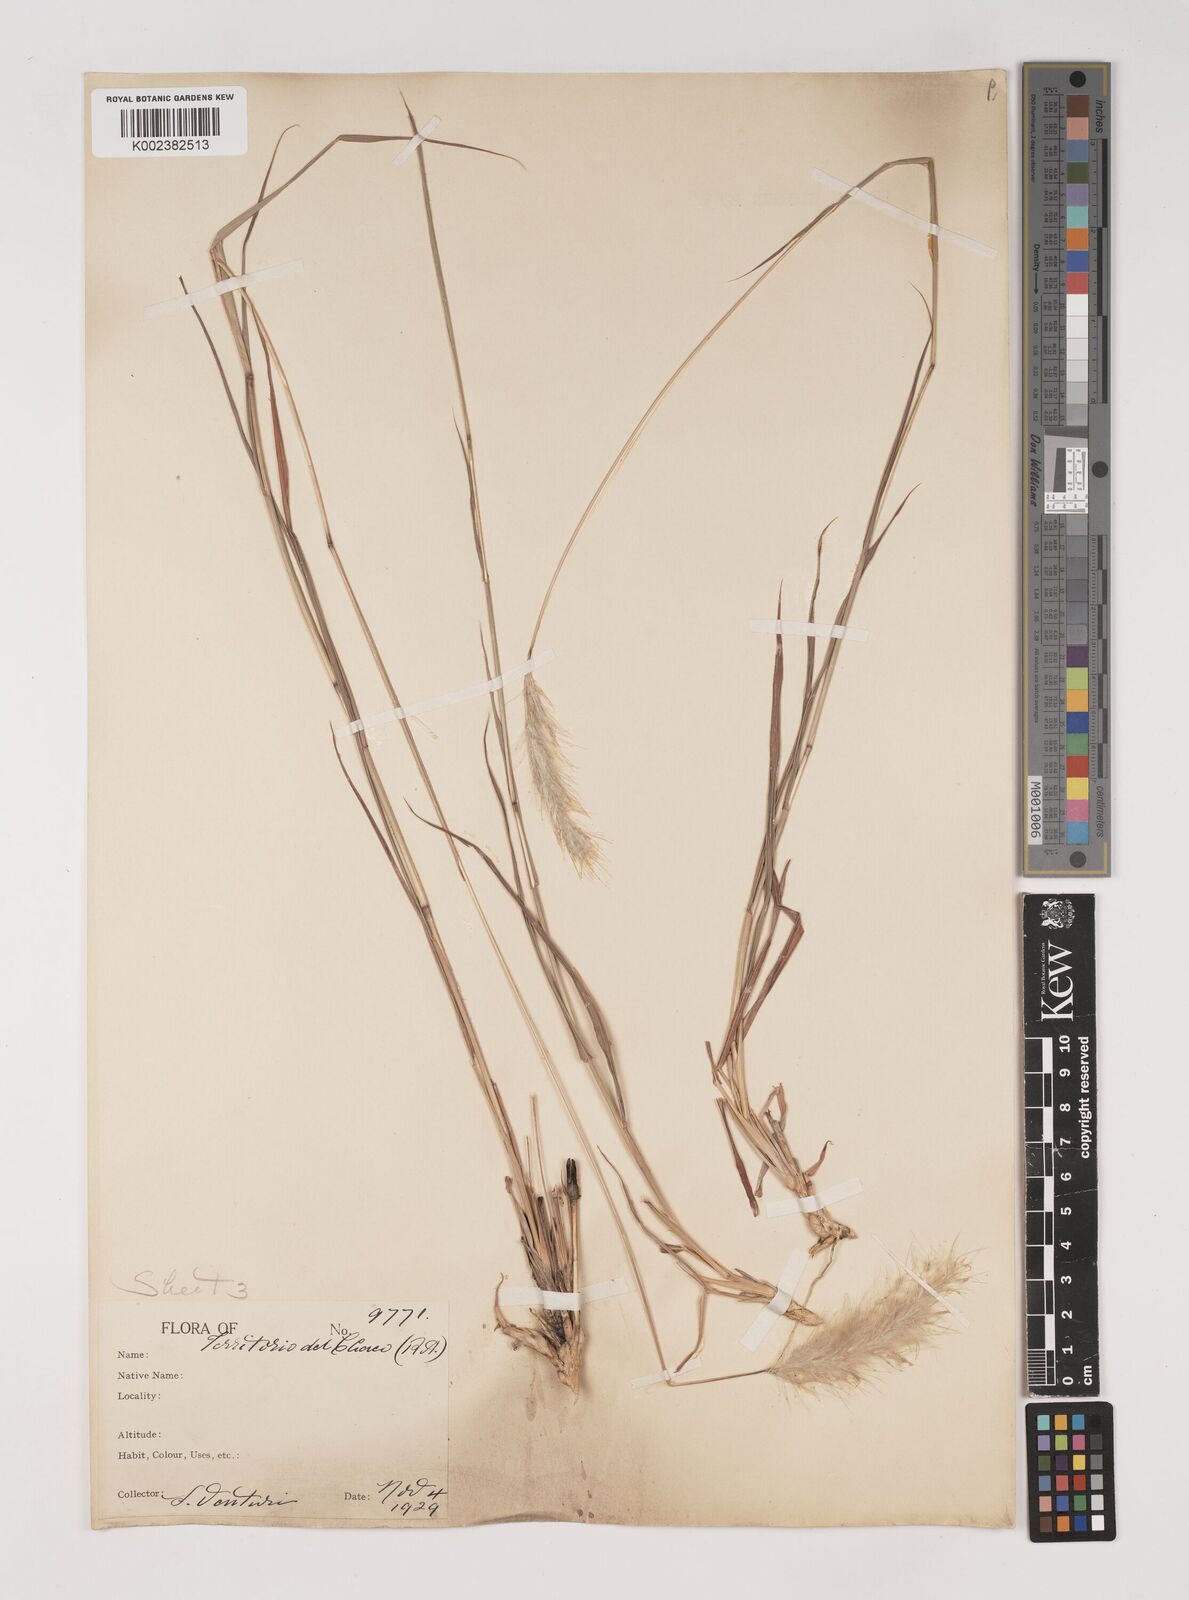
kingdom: Plantae
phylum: Tracheophyta
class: Liliopsida
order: Poales
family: Poaceae
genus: Bothriochloa
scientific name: Bothriochloa laguroides
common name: Silver bluestem
